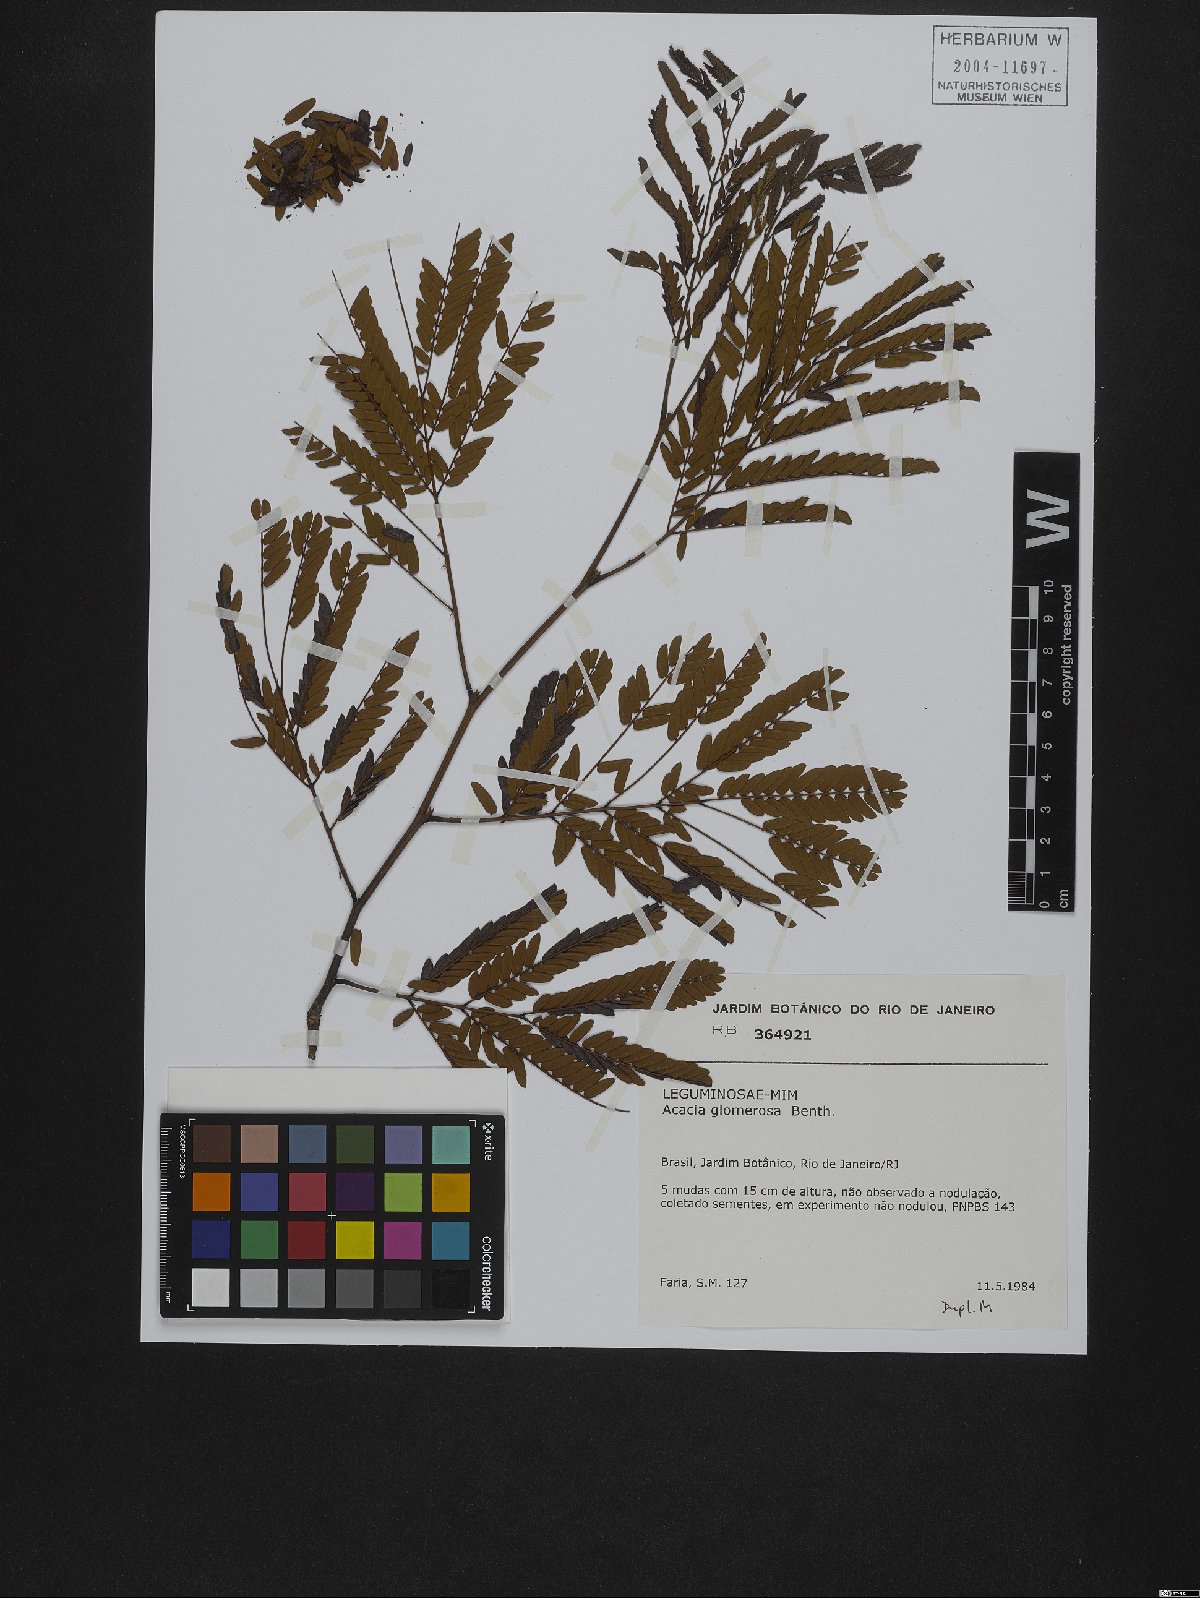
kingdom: Plantae
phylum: Tracheophyta
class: Magnoliopsida
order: Fabales
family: Fabaceae
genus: Senegalia
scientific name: Senegalia polyphylla
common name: White-tamarind
